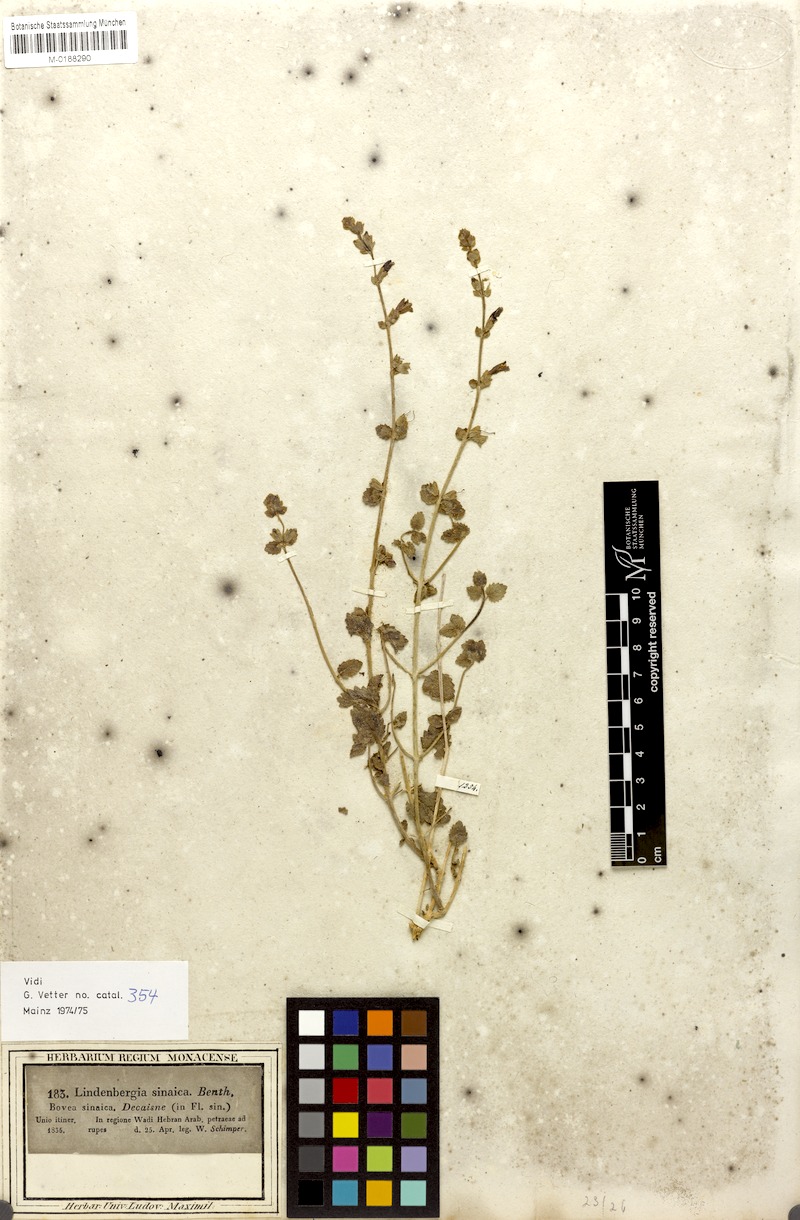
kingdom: Plantae
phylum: Tracheophyta
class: Magnoliopsida
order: Lamiales
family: Orobanchaceae
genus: Lindenbergia
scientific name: Lindenbergia indica
